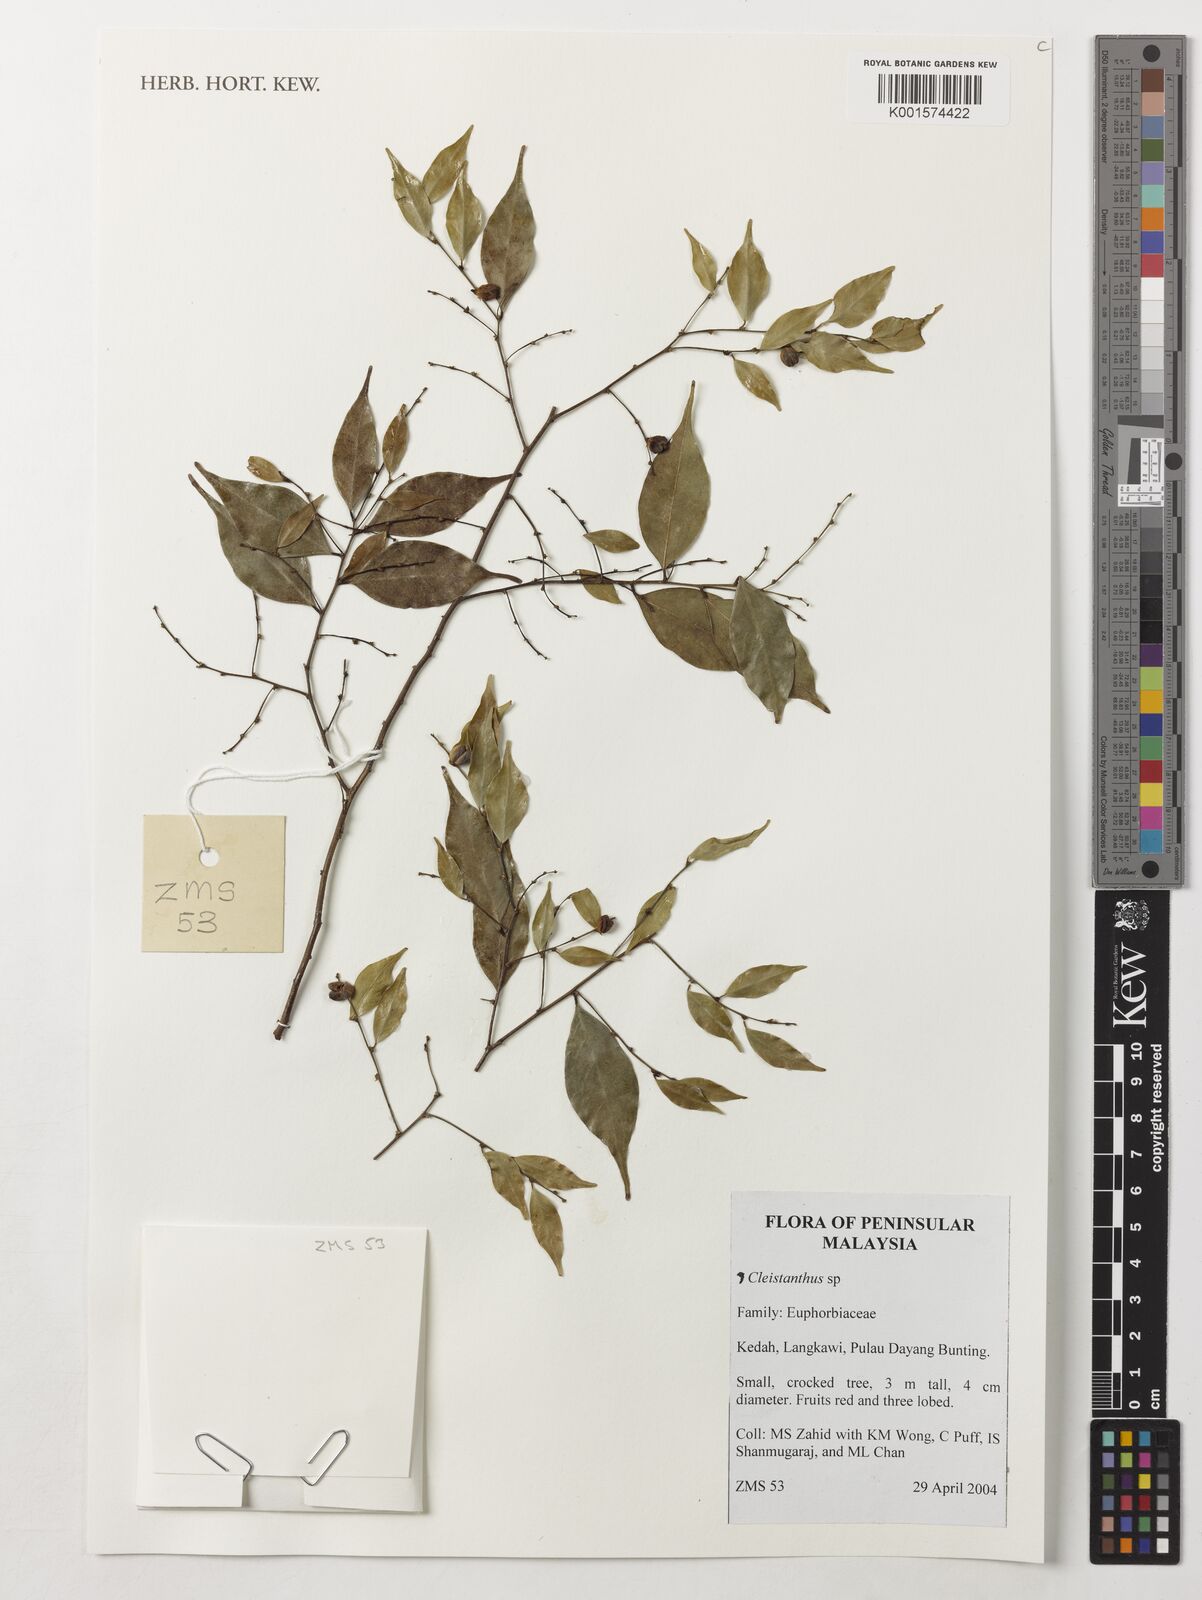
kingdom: Plantae
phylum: Tracheophyta
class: Magnoliopsida
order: Malpighiales
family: Phyllanthaceae
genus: Cleistanthus
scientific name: Cleistanthus
